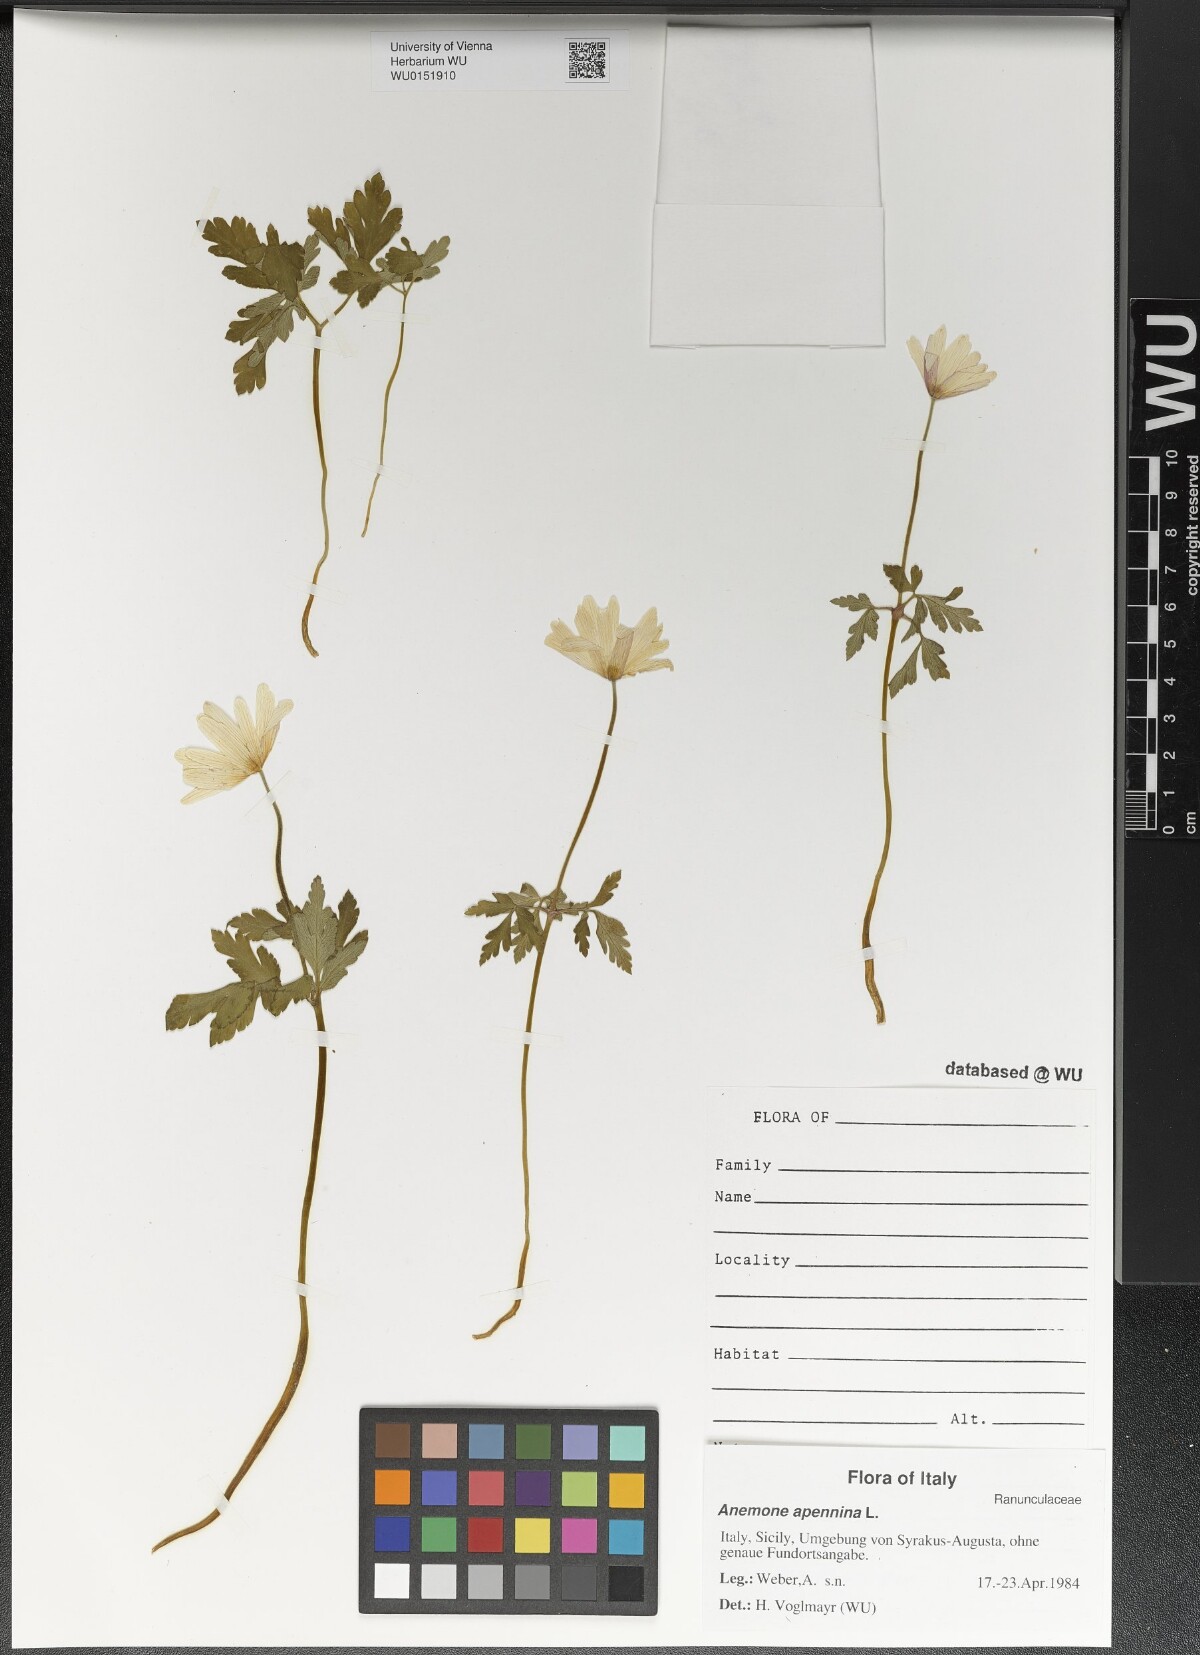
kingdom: Plantae
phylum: Tracheophyta
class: Magnoliopsida
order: Ranunculales
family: Ranunculaceae
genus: Anemone
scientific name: Anemone apennina
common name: Blue anemone
